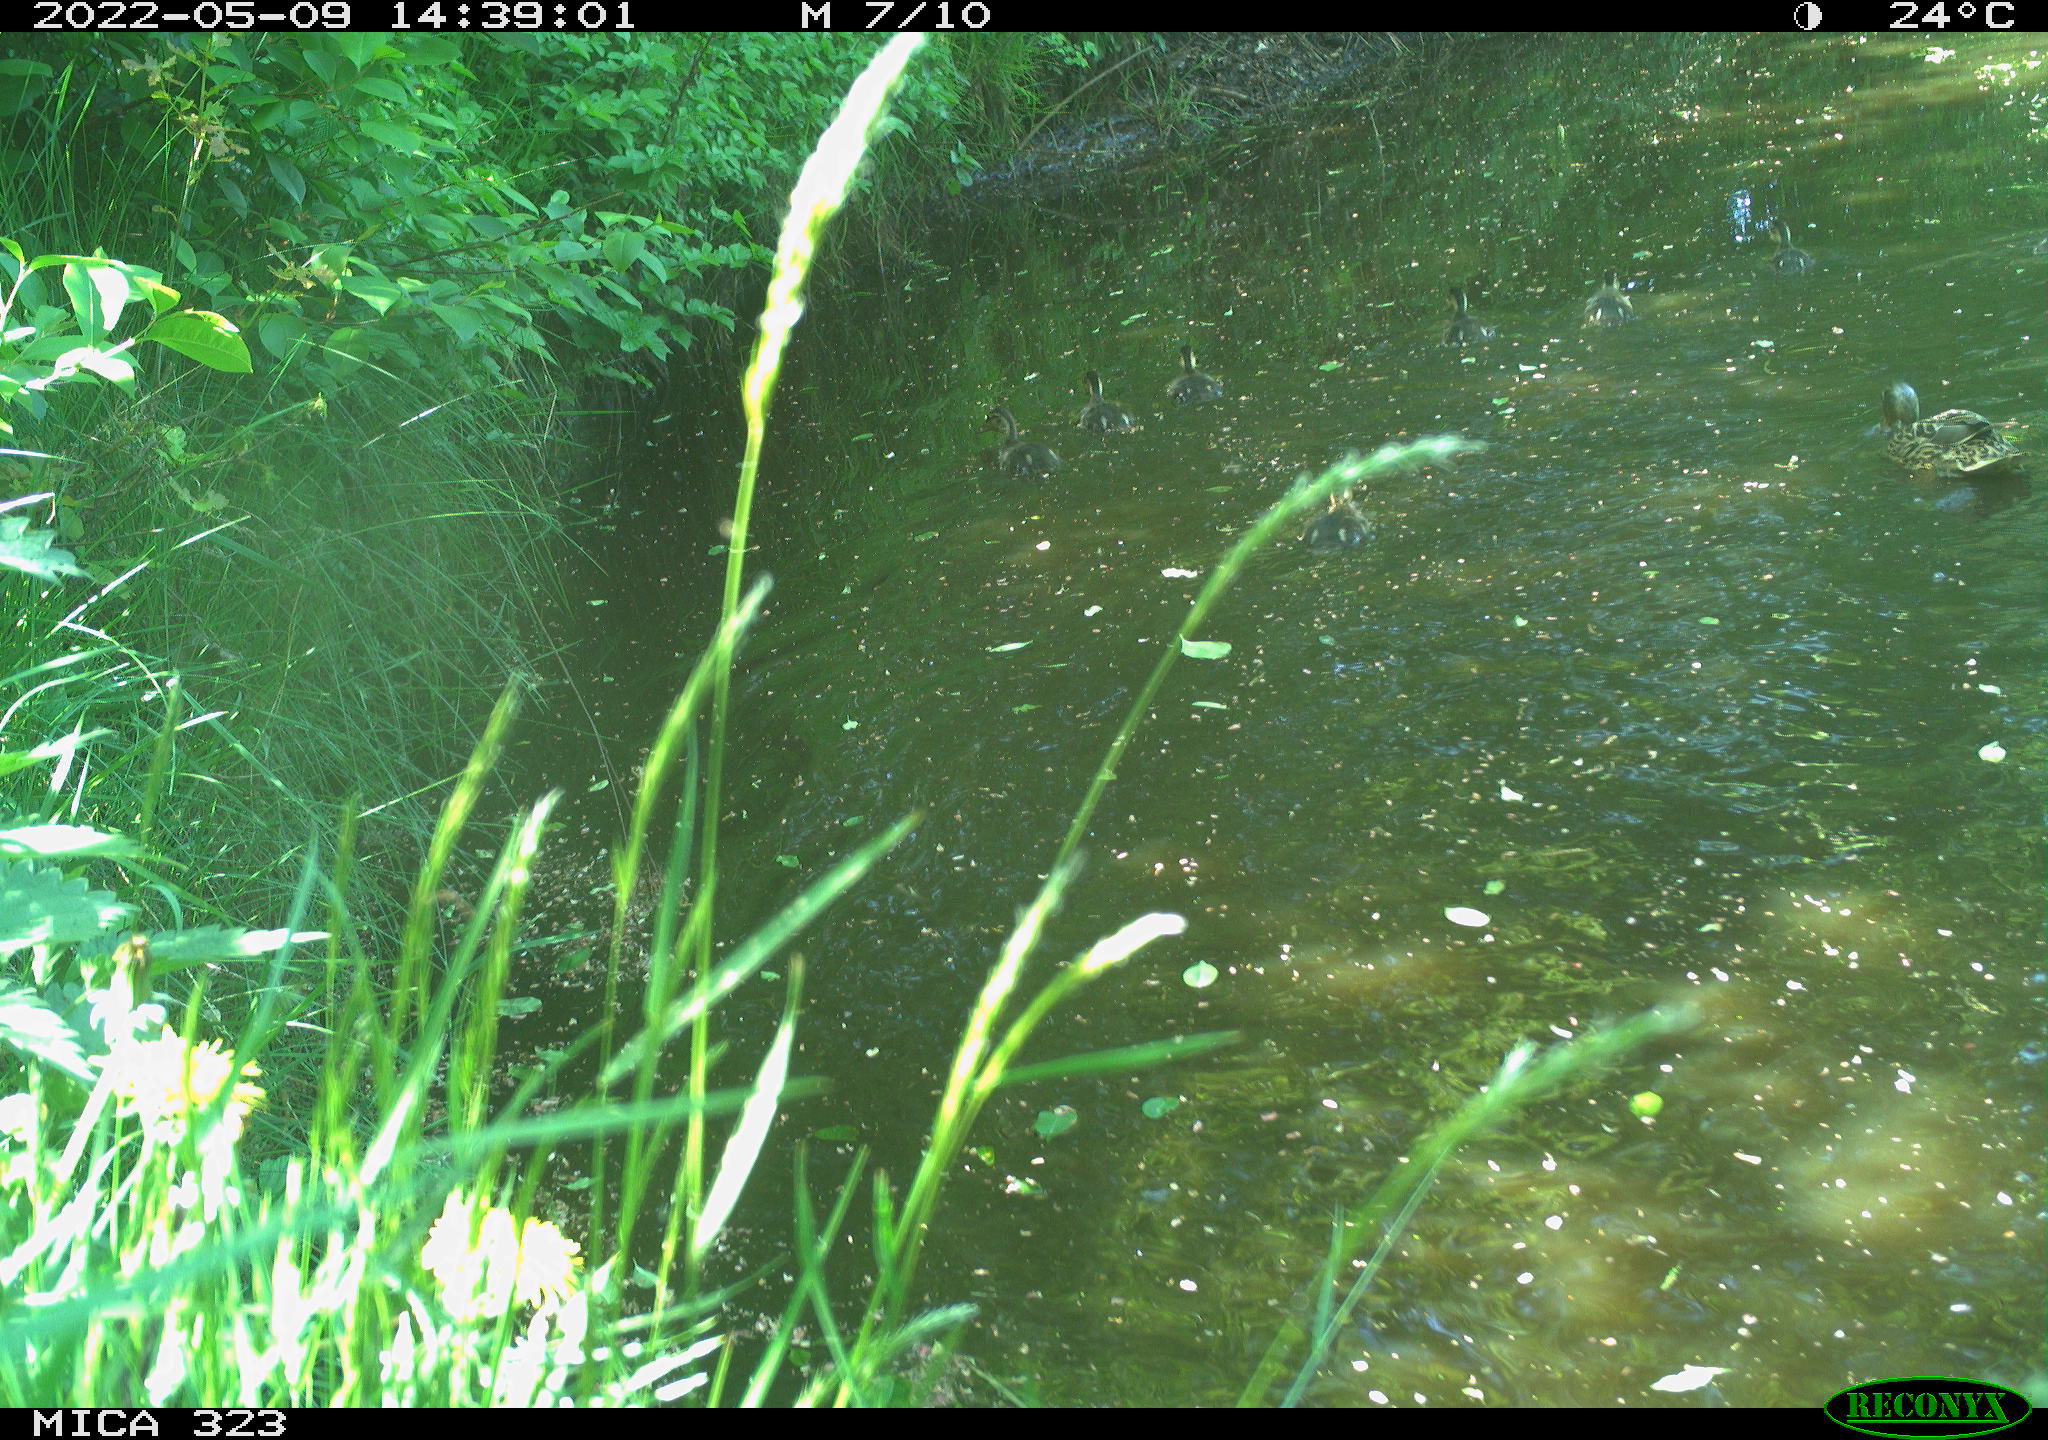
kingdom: Animalia
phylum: Chordata
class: Aves
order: Anseriformes
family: Anatidae
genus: Anas
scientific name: Anas platyrhynchos
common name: Mallard
